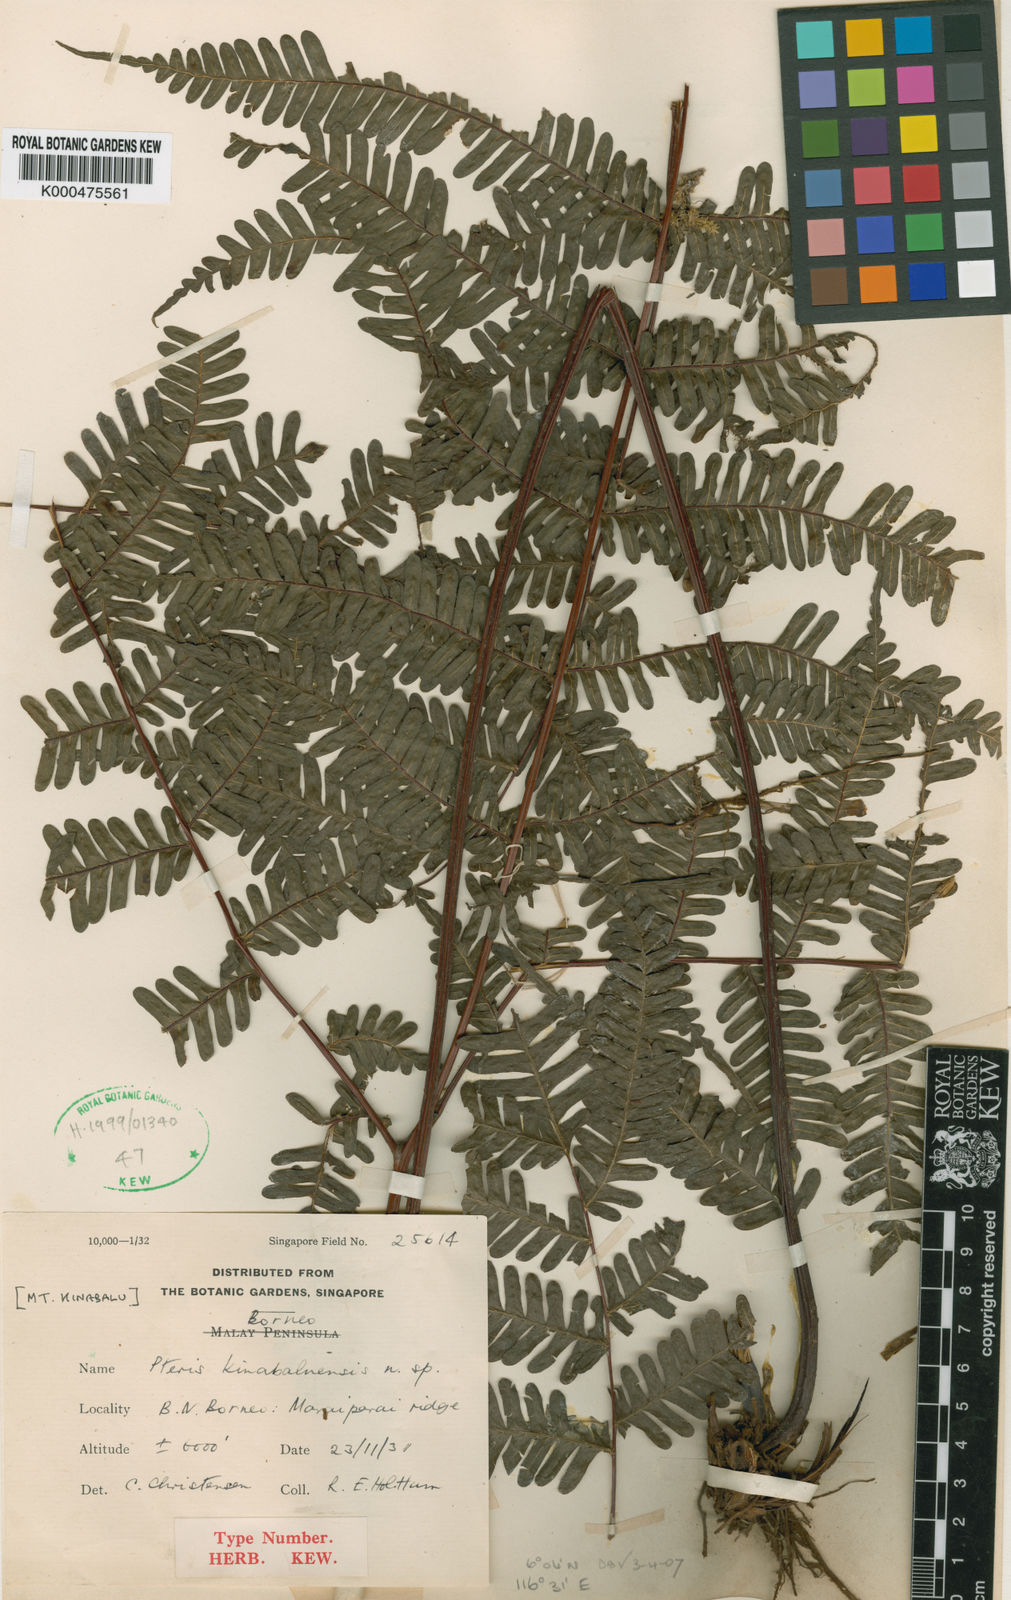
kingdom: Plantae
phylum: Tracheophyta
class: Polypodiopsida
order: Polypodiales
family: Pteridaceae
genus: Pteris
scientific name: Pteris longipes
